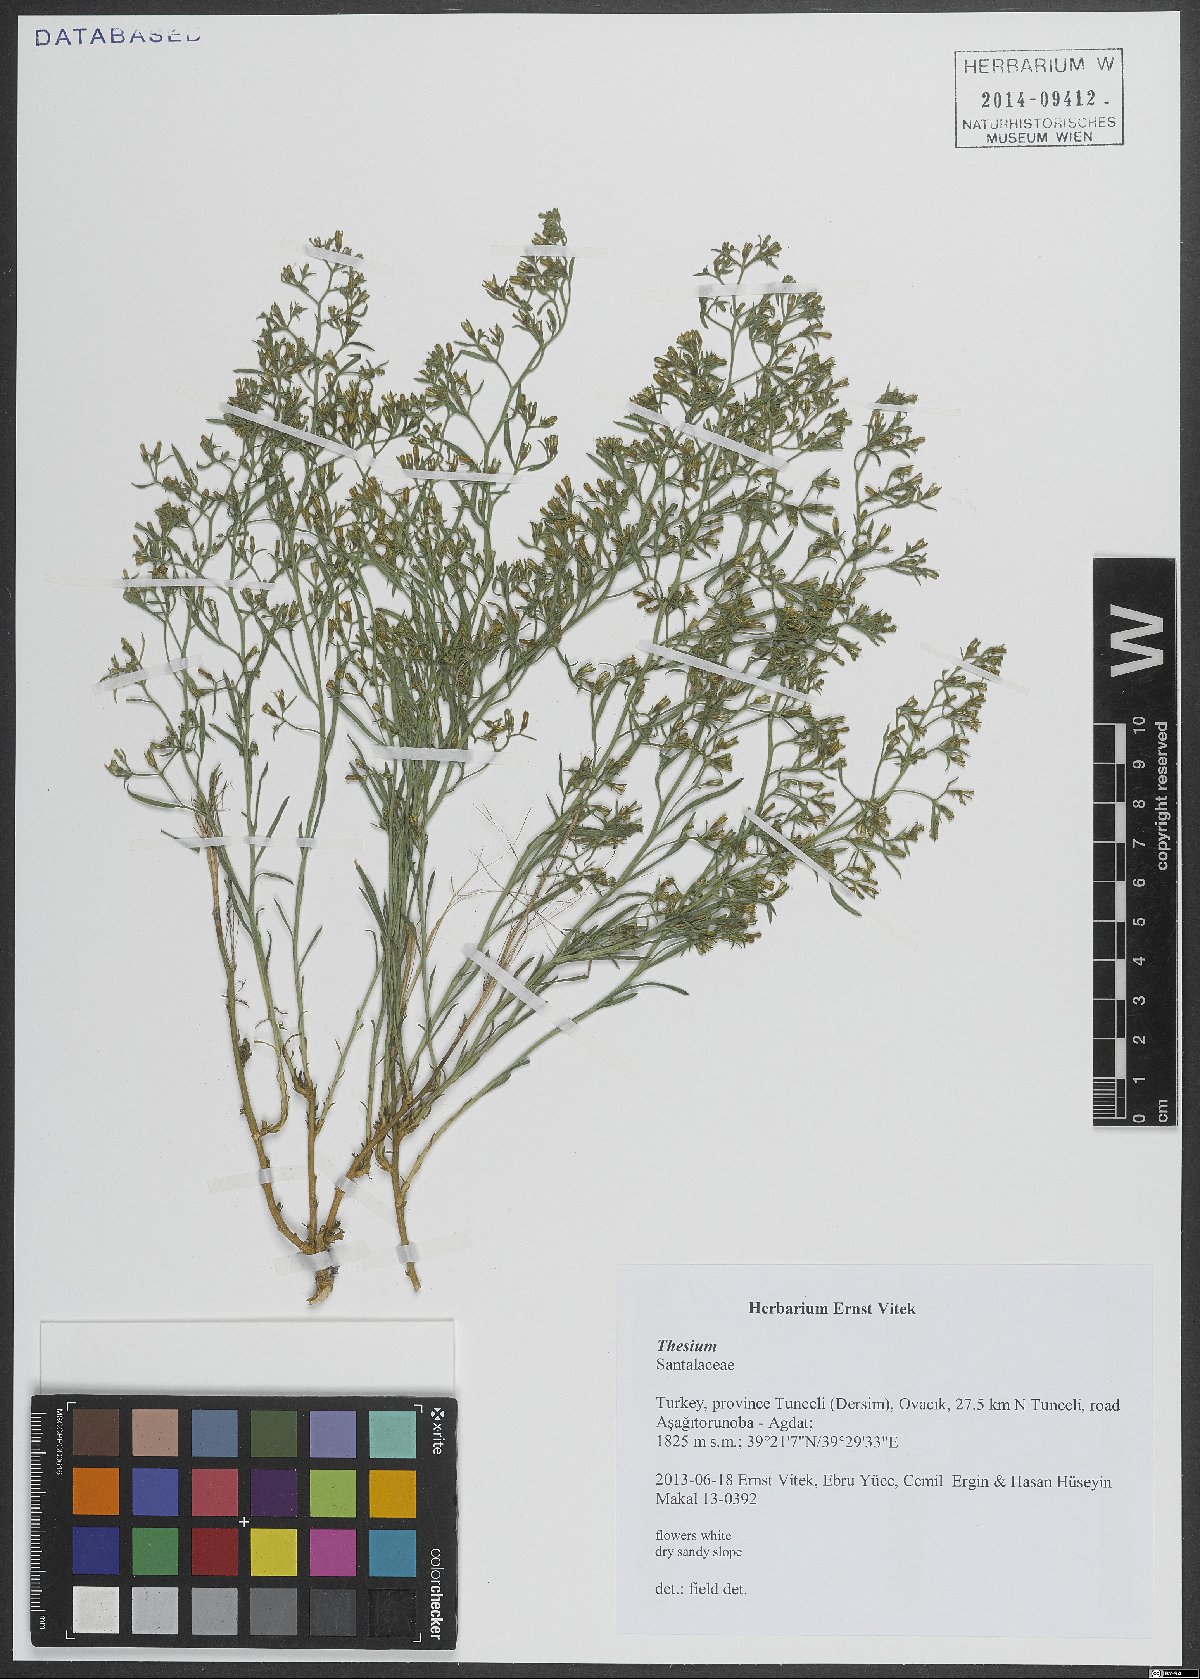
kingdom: Plantae
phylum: Tracheophyta
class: Magnoliopsida
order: Santalales
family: Thesiaceae
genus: Thesium
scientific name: Thesium
